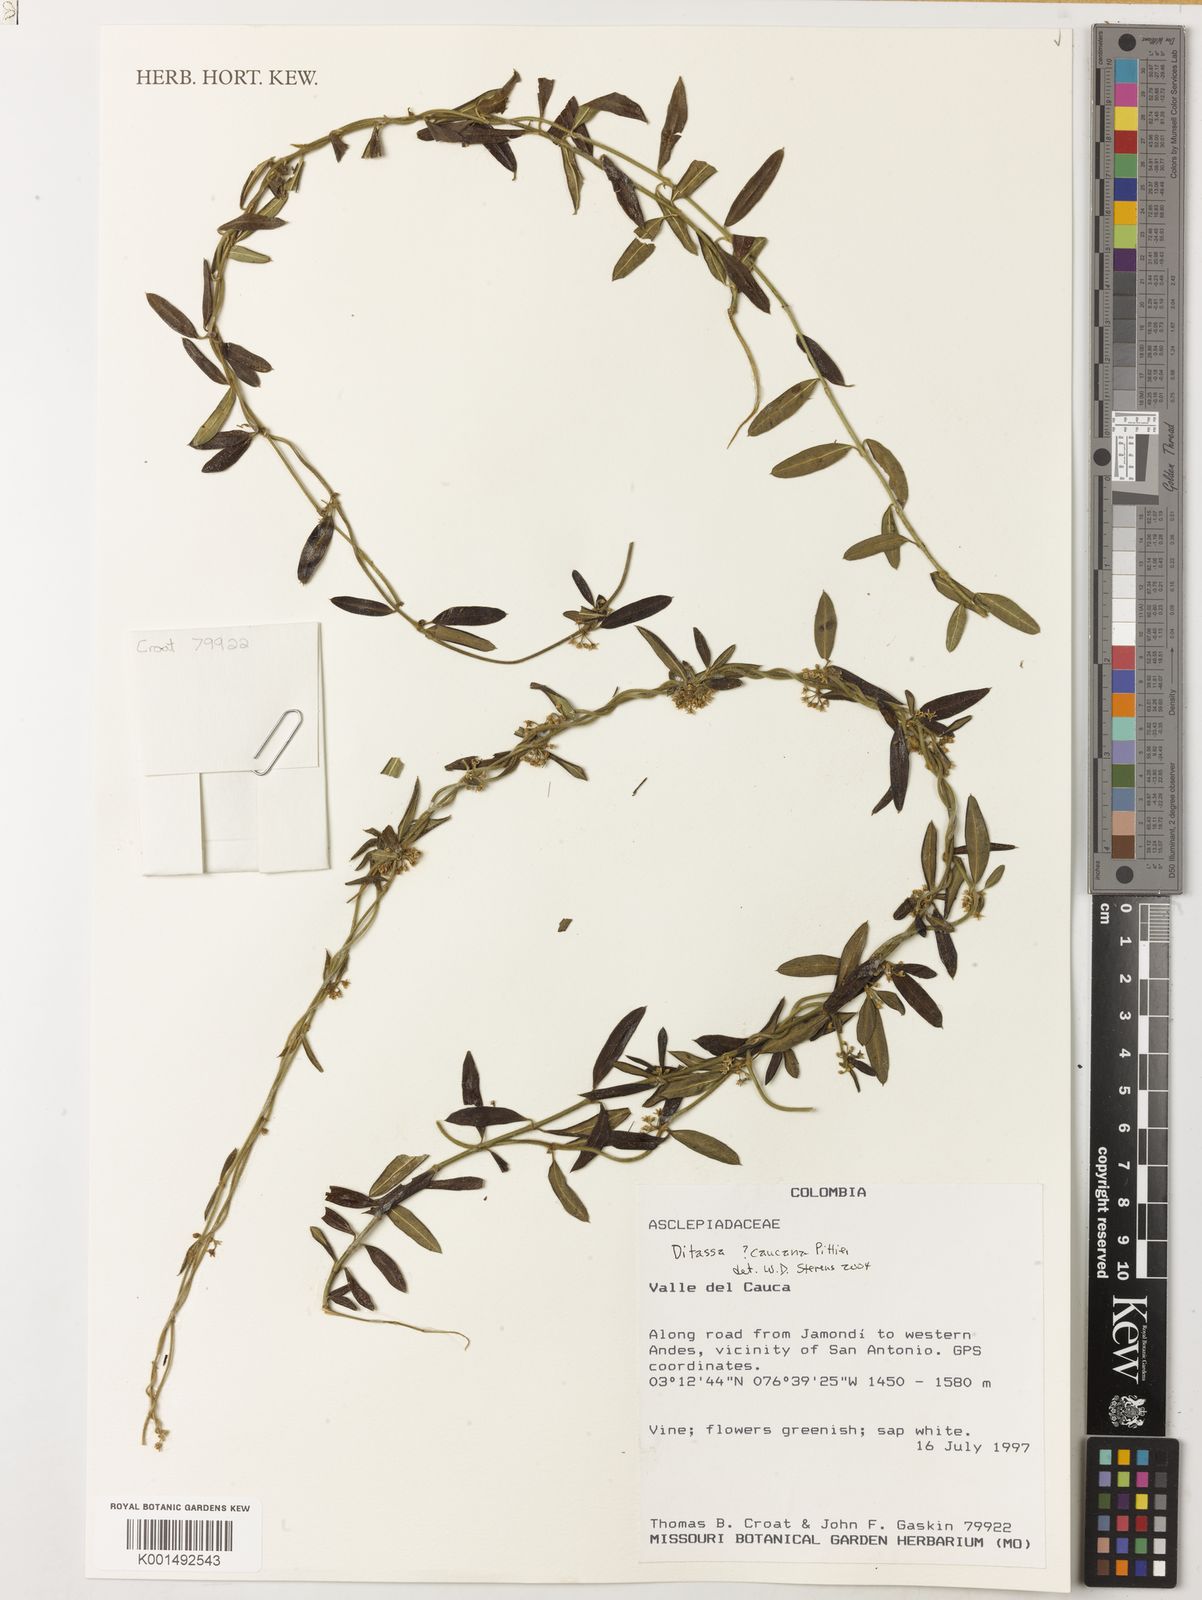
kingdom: Plantae
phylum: Tracheophyta
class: Magnoliopsida
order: Gentianales
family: Apocynaceae
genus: Ditassa
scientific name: Ditassa caucana
